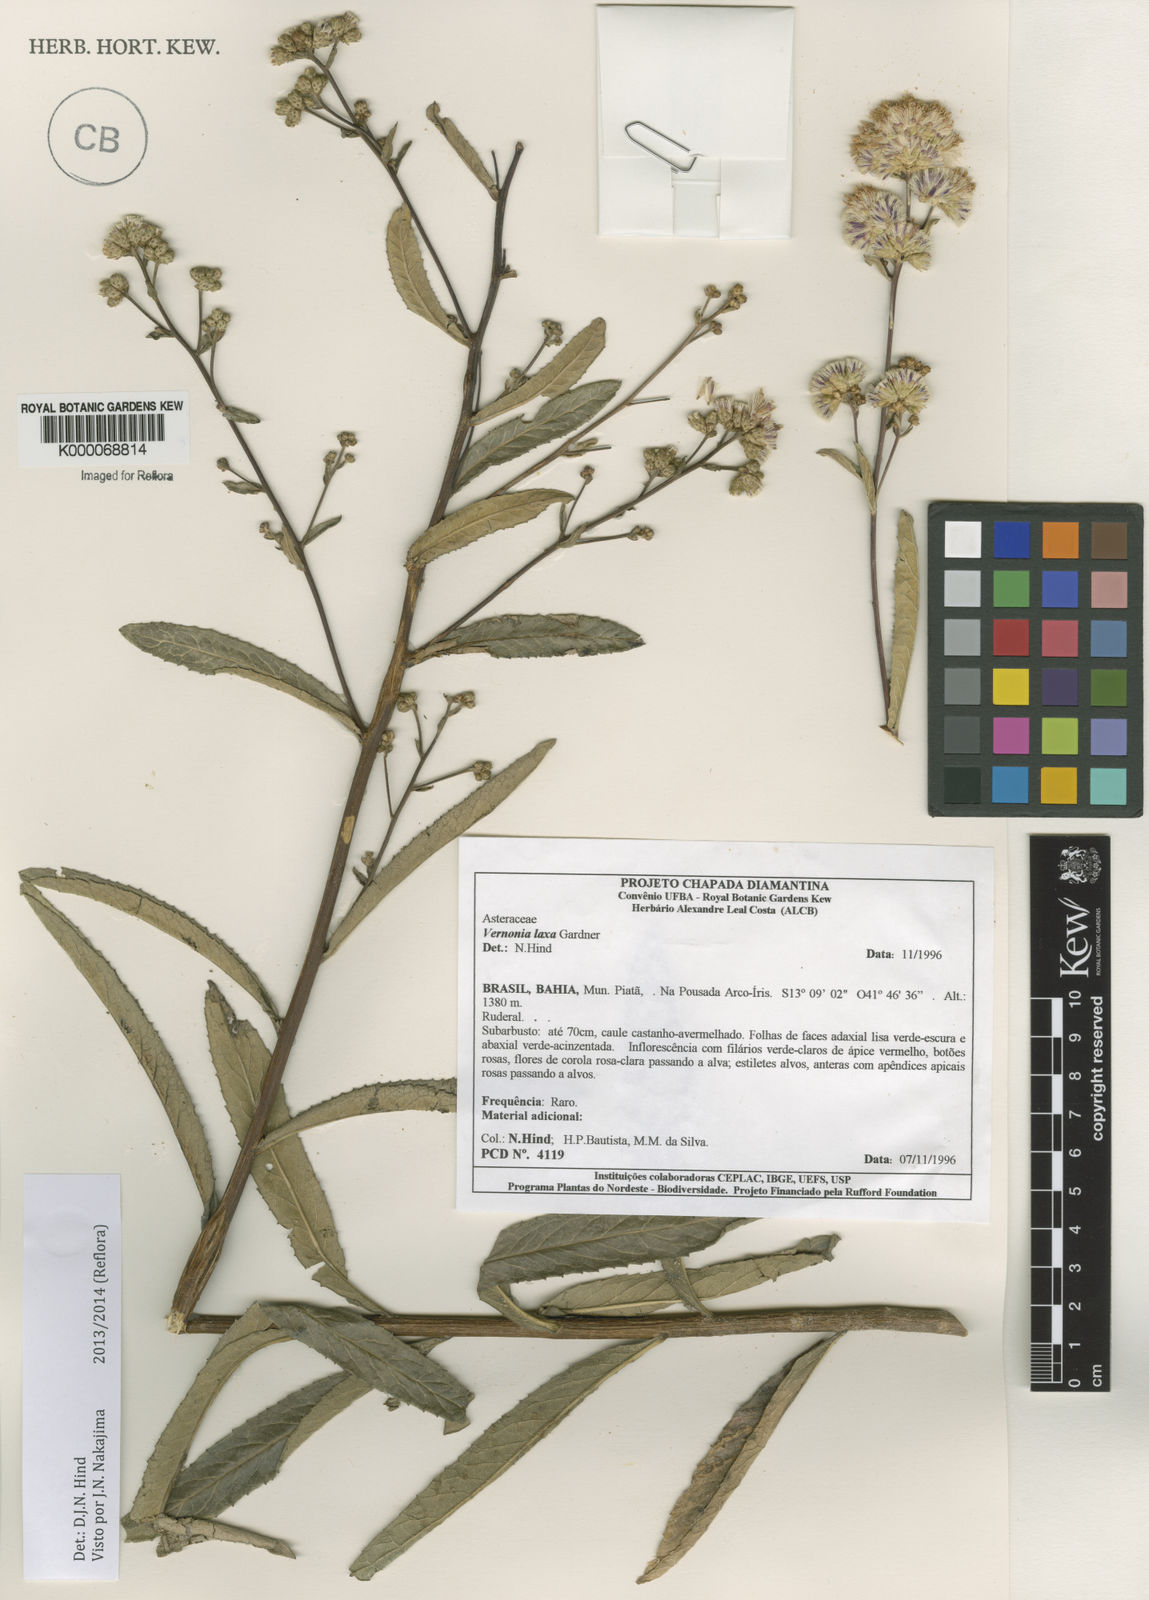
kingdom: Plantae
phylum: Tracheophyta
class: Magnoliopsida
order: Asterales
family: Asteraceae
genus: Vernonanthura
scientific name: Vernonanthura laxa
